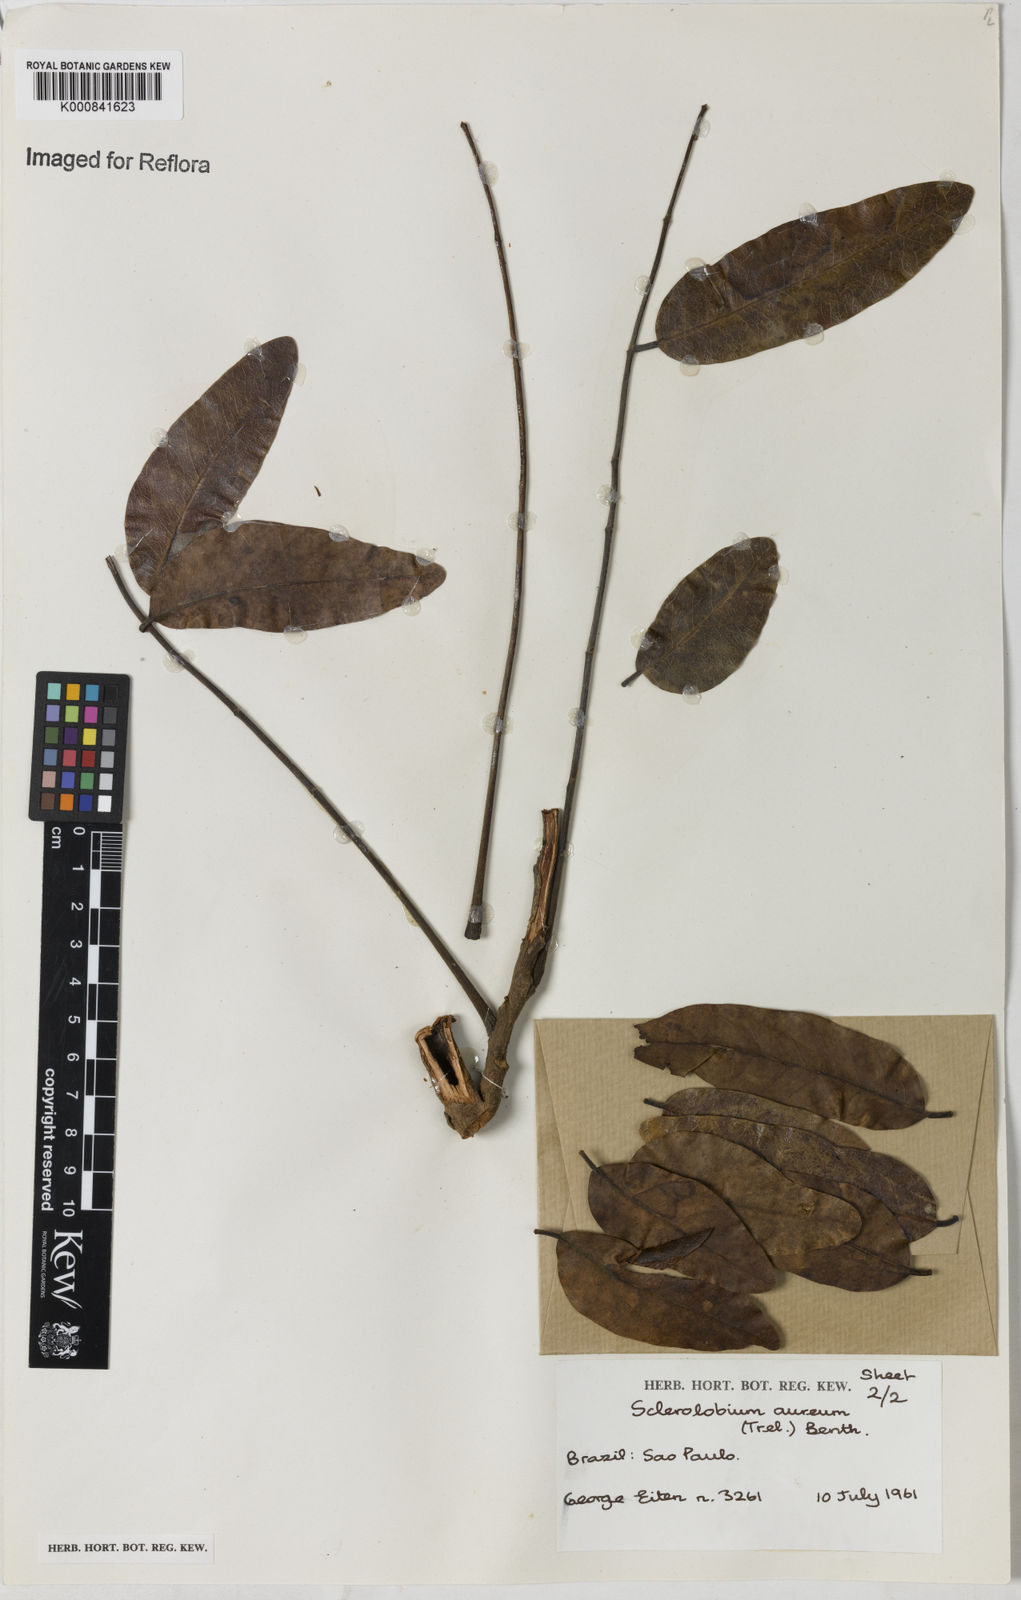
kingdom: Plantae
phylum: Tracheophyta
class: Magnoliopsida
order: Fabales
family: Fabaceae
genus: Tachigali
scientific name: Tachigali aurea
